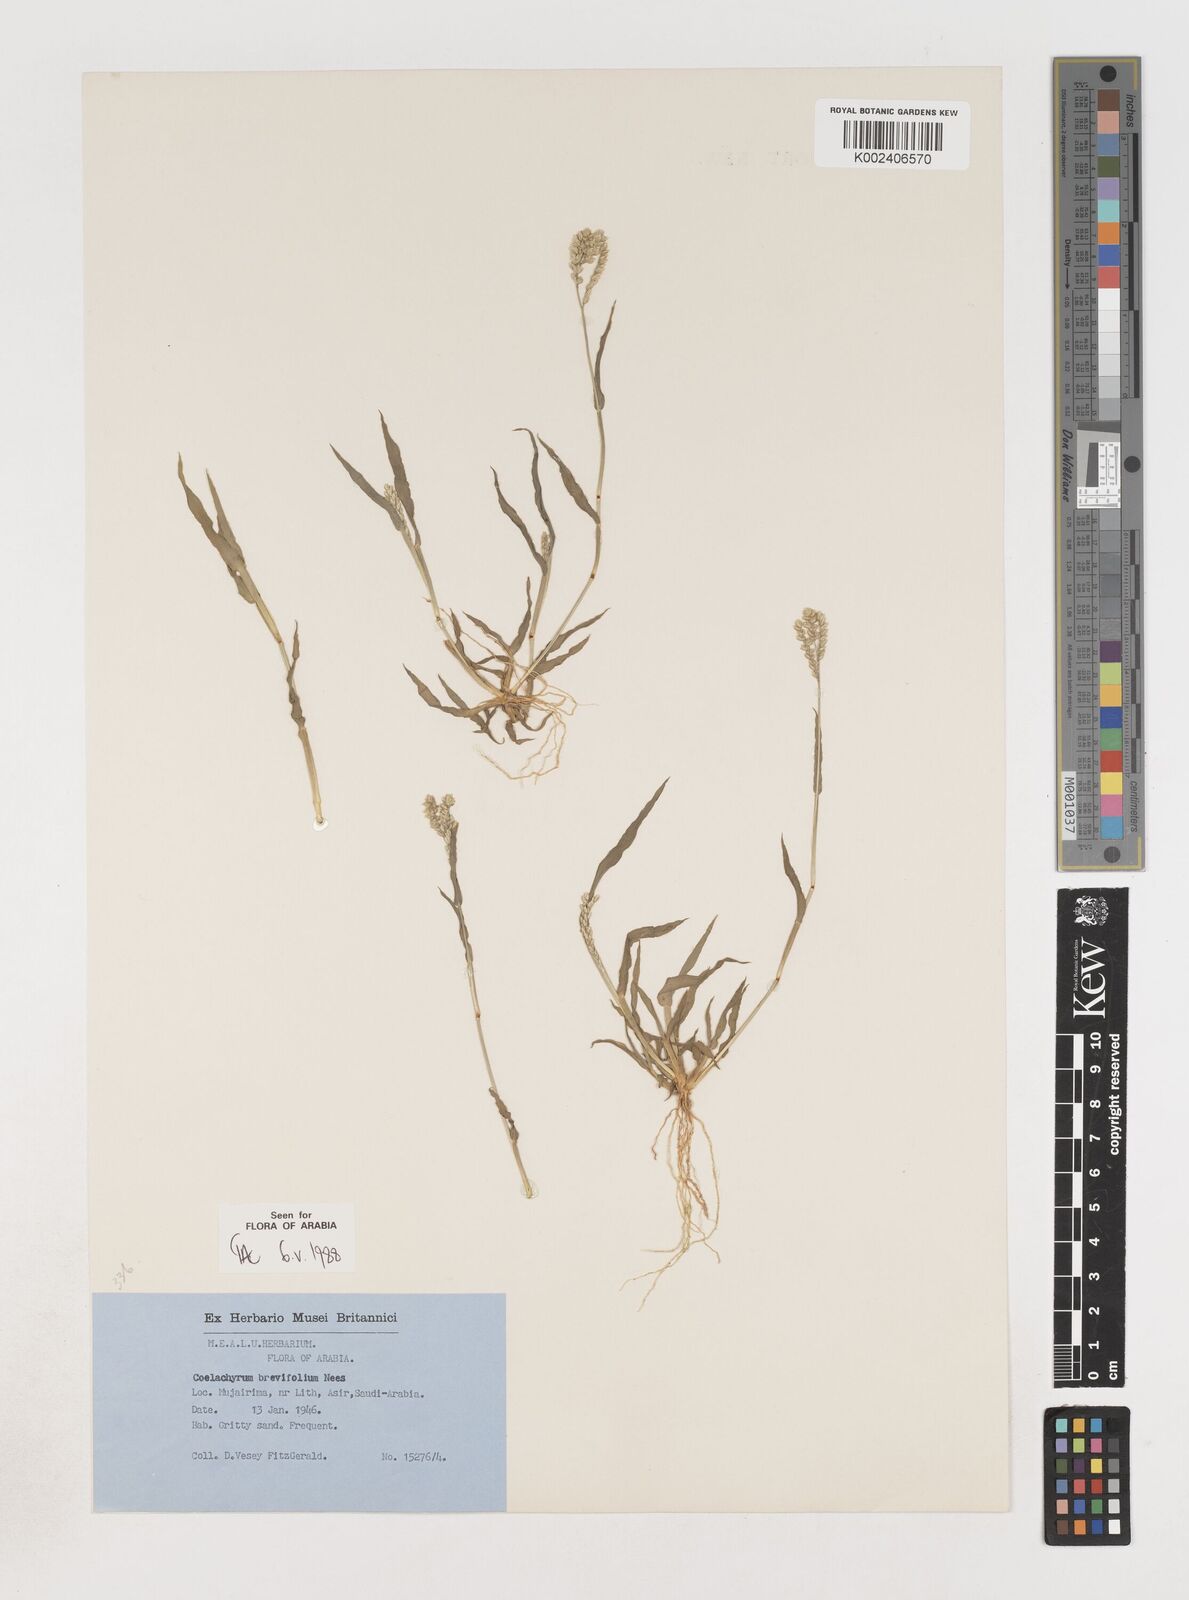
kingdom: Plantae
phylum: Tracheophyta
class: Liliopsida
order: Poales
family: Poaceae
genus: Coelachyrum
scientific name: Coelachyrum brevifolium
